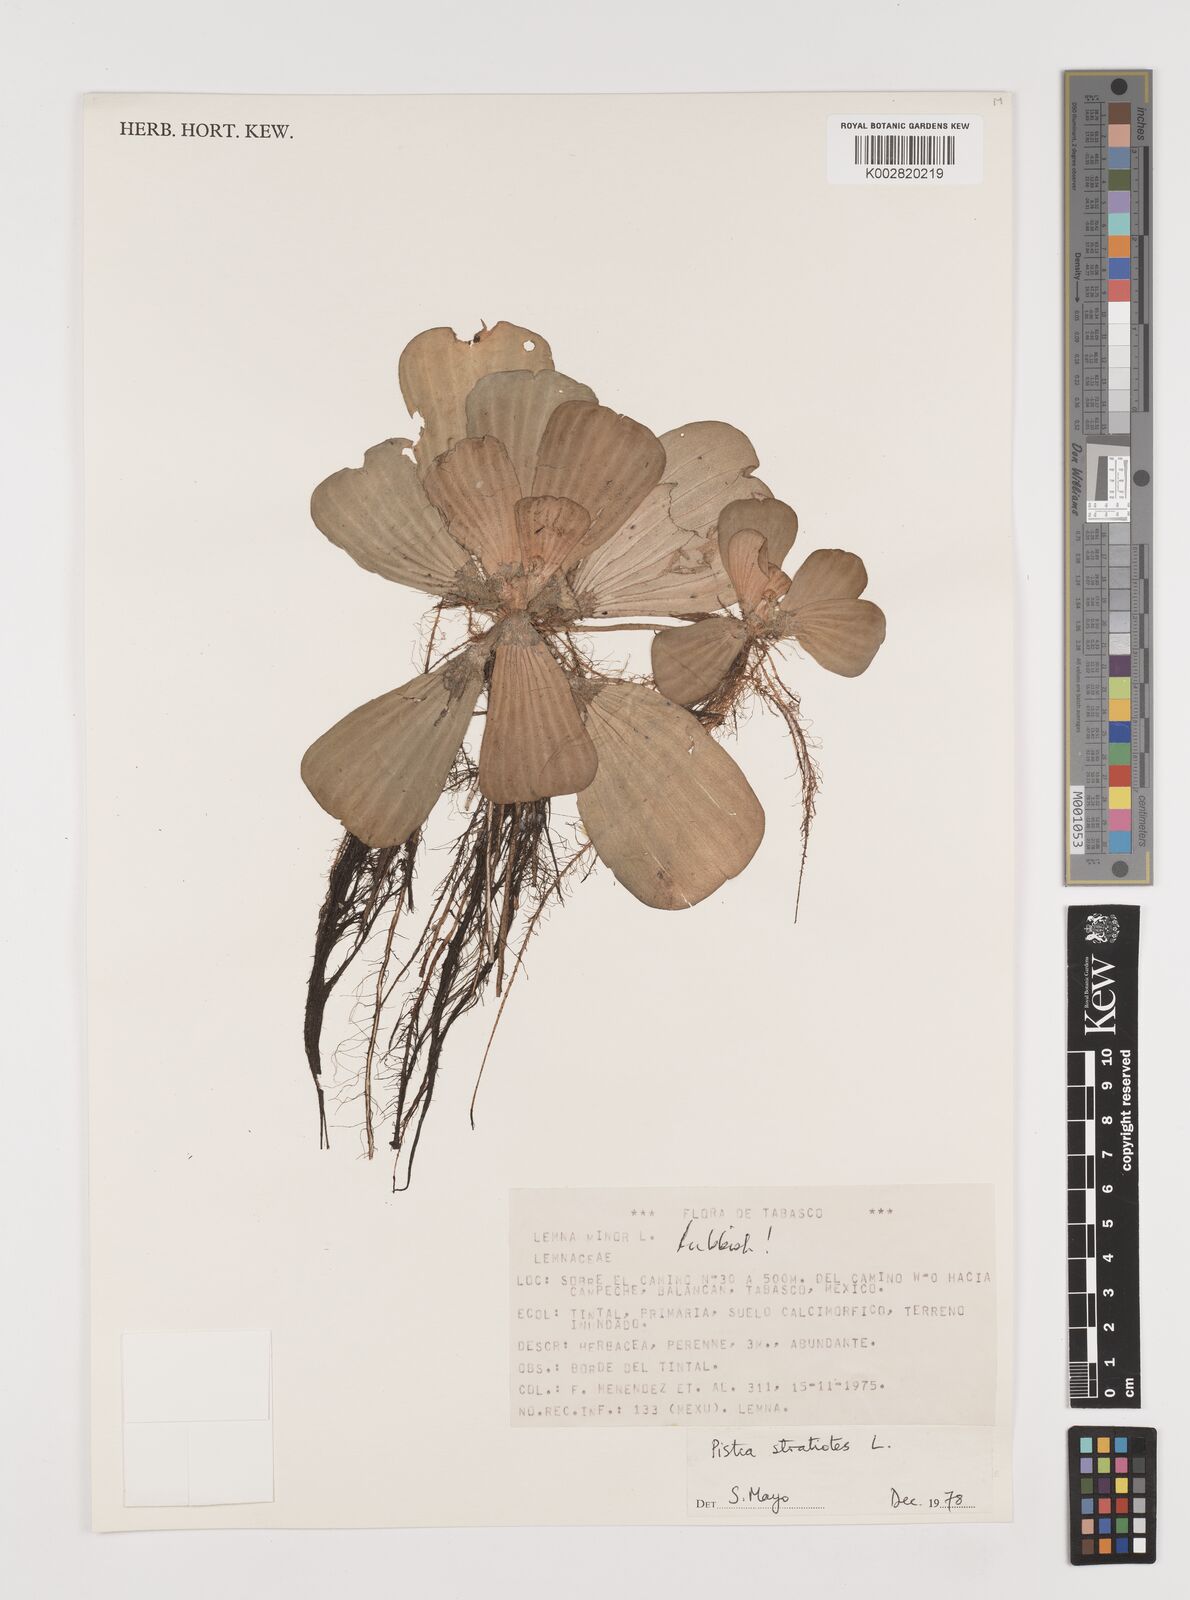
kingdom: Plantae
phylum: Tracheophyta
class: Liliopsida
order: Alismatales
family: Araceae
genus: Pistia
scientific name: Pistia stratiotes
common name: Water lettuce
